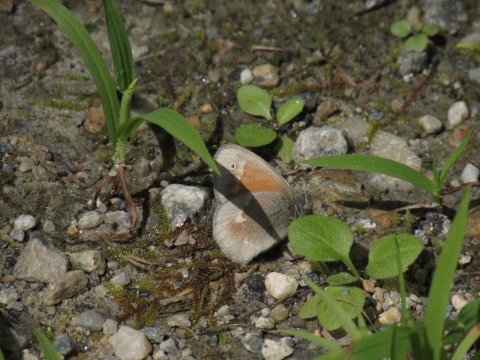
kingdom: Animalia
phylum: Arthropoda
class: Insecta
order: Lepidoptera
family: Nymphalidae
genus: Coenonympha
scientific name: Coenonympha tullia
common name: Large Heath
